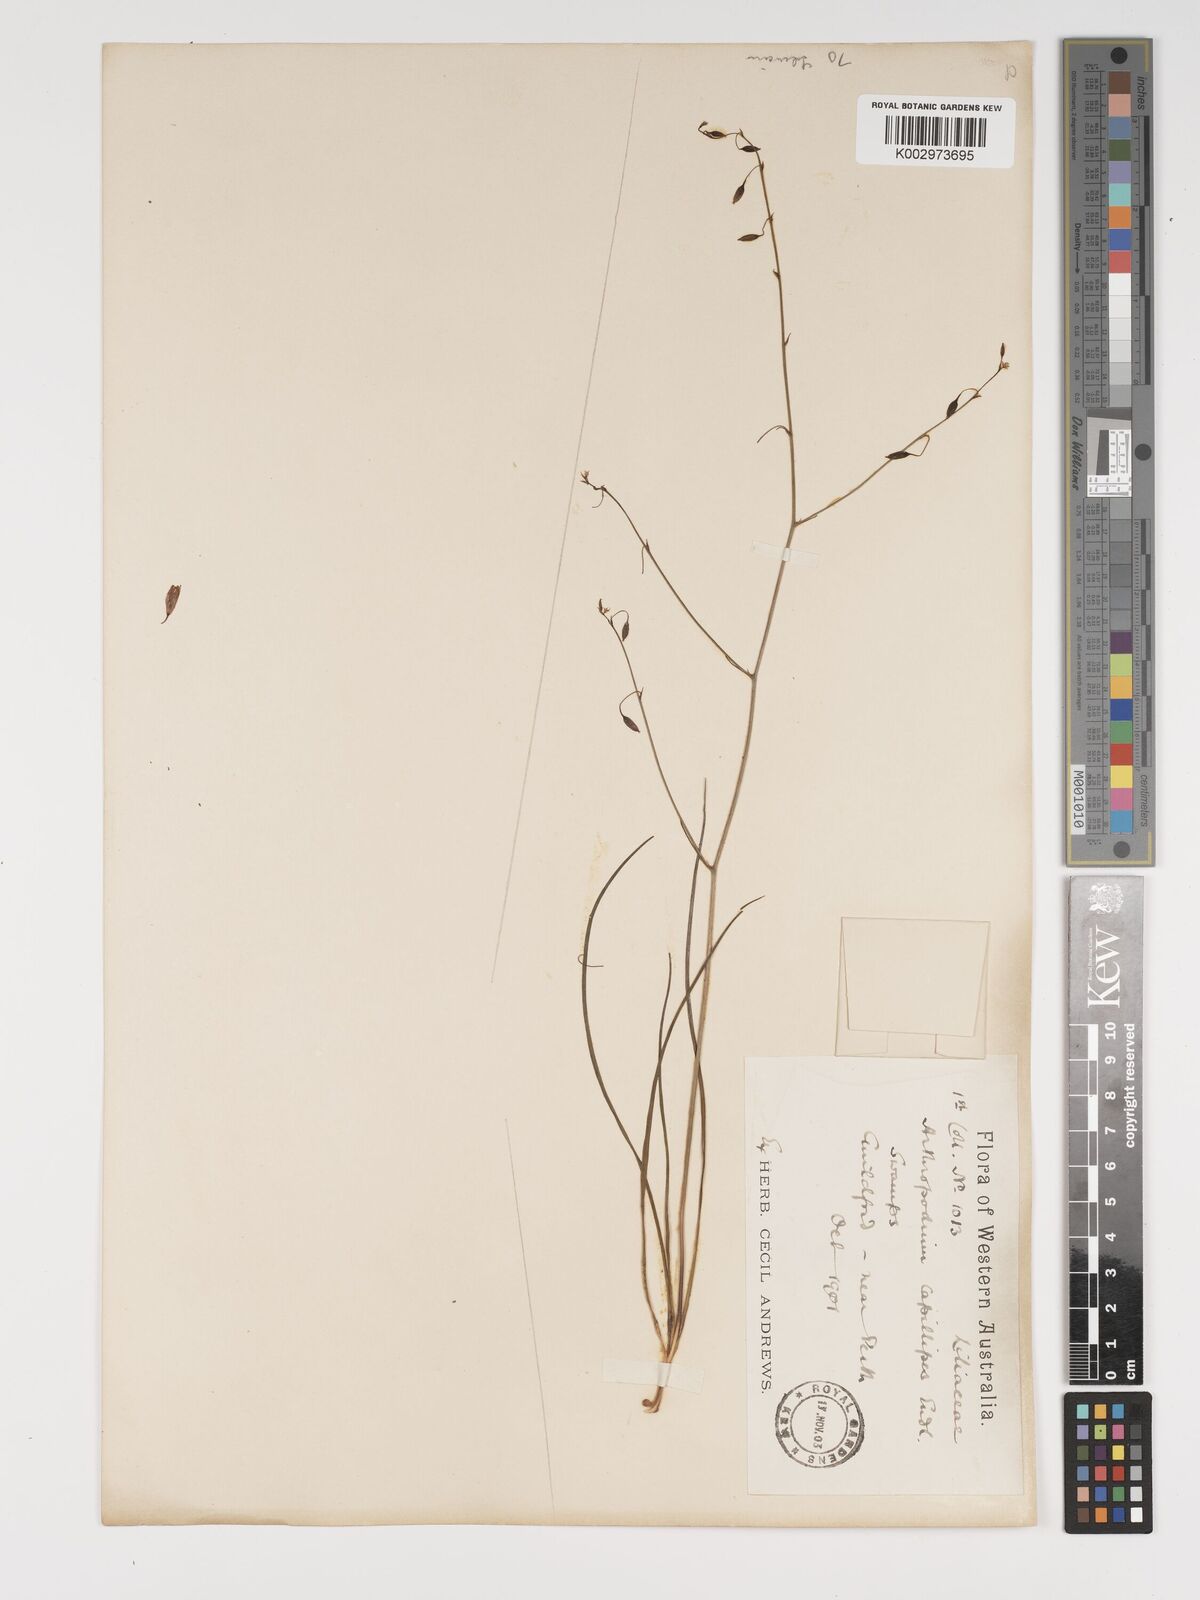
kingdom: Plantae
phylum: Tracheophyta
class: Liliopsida
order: Asparagales
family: Asparagaceae
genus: Dichopogon
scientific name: Dichopogon preissii
